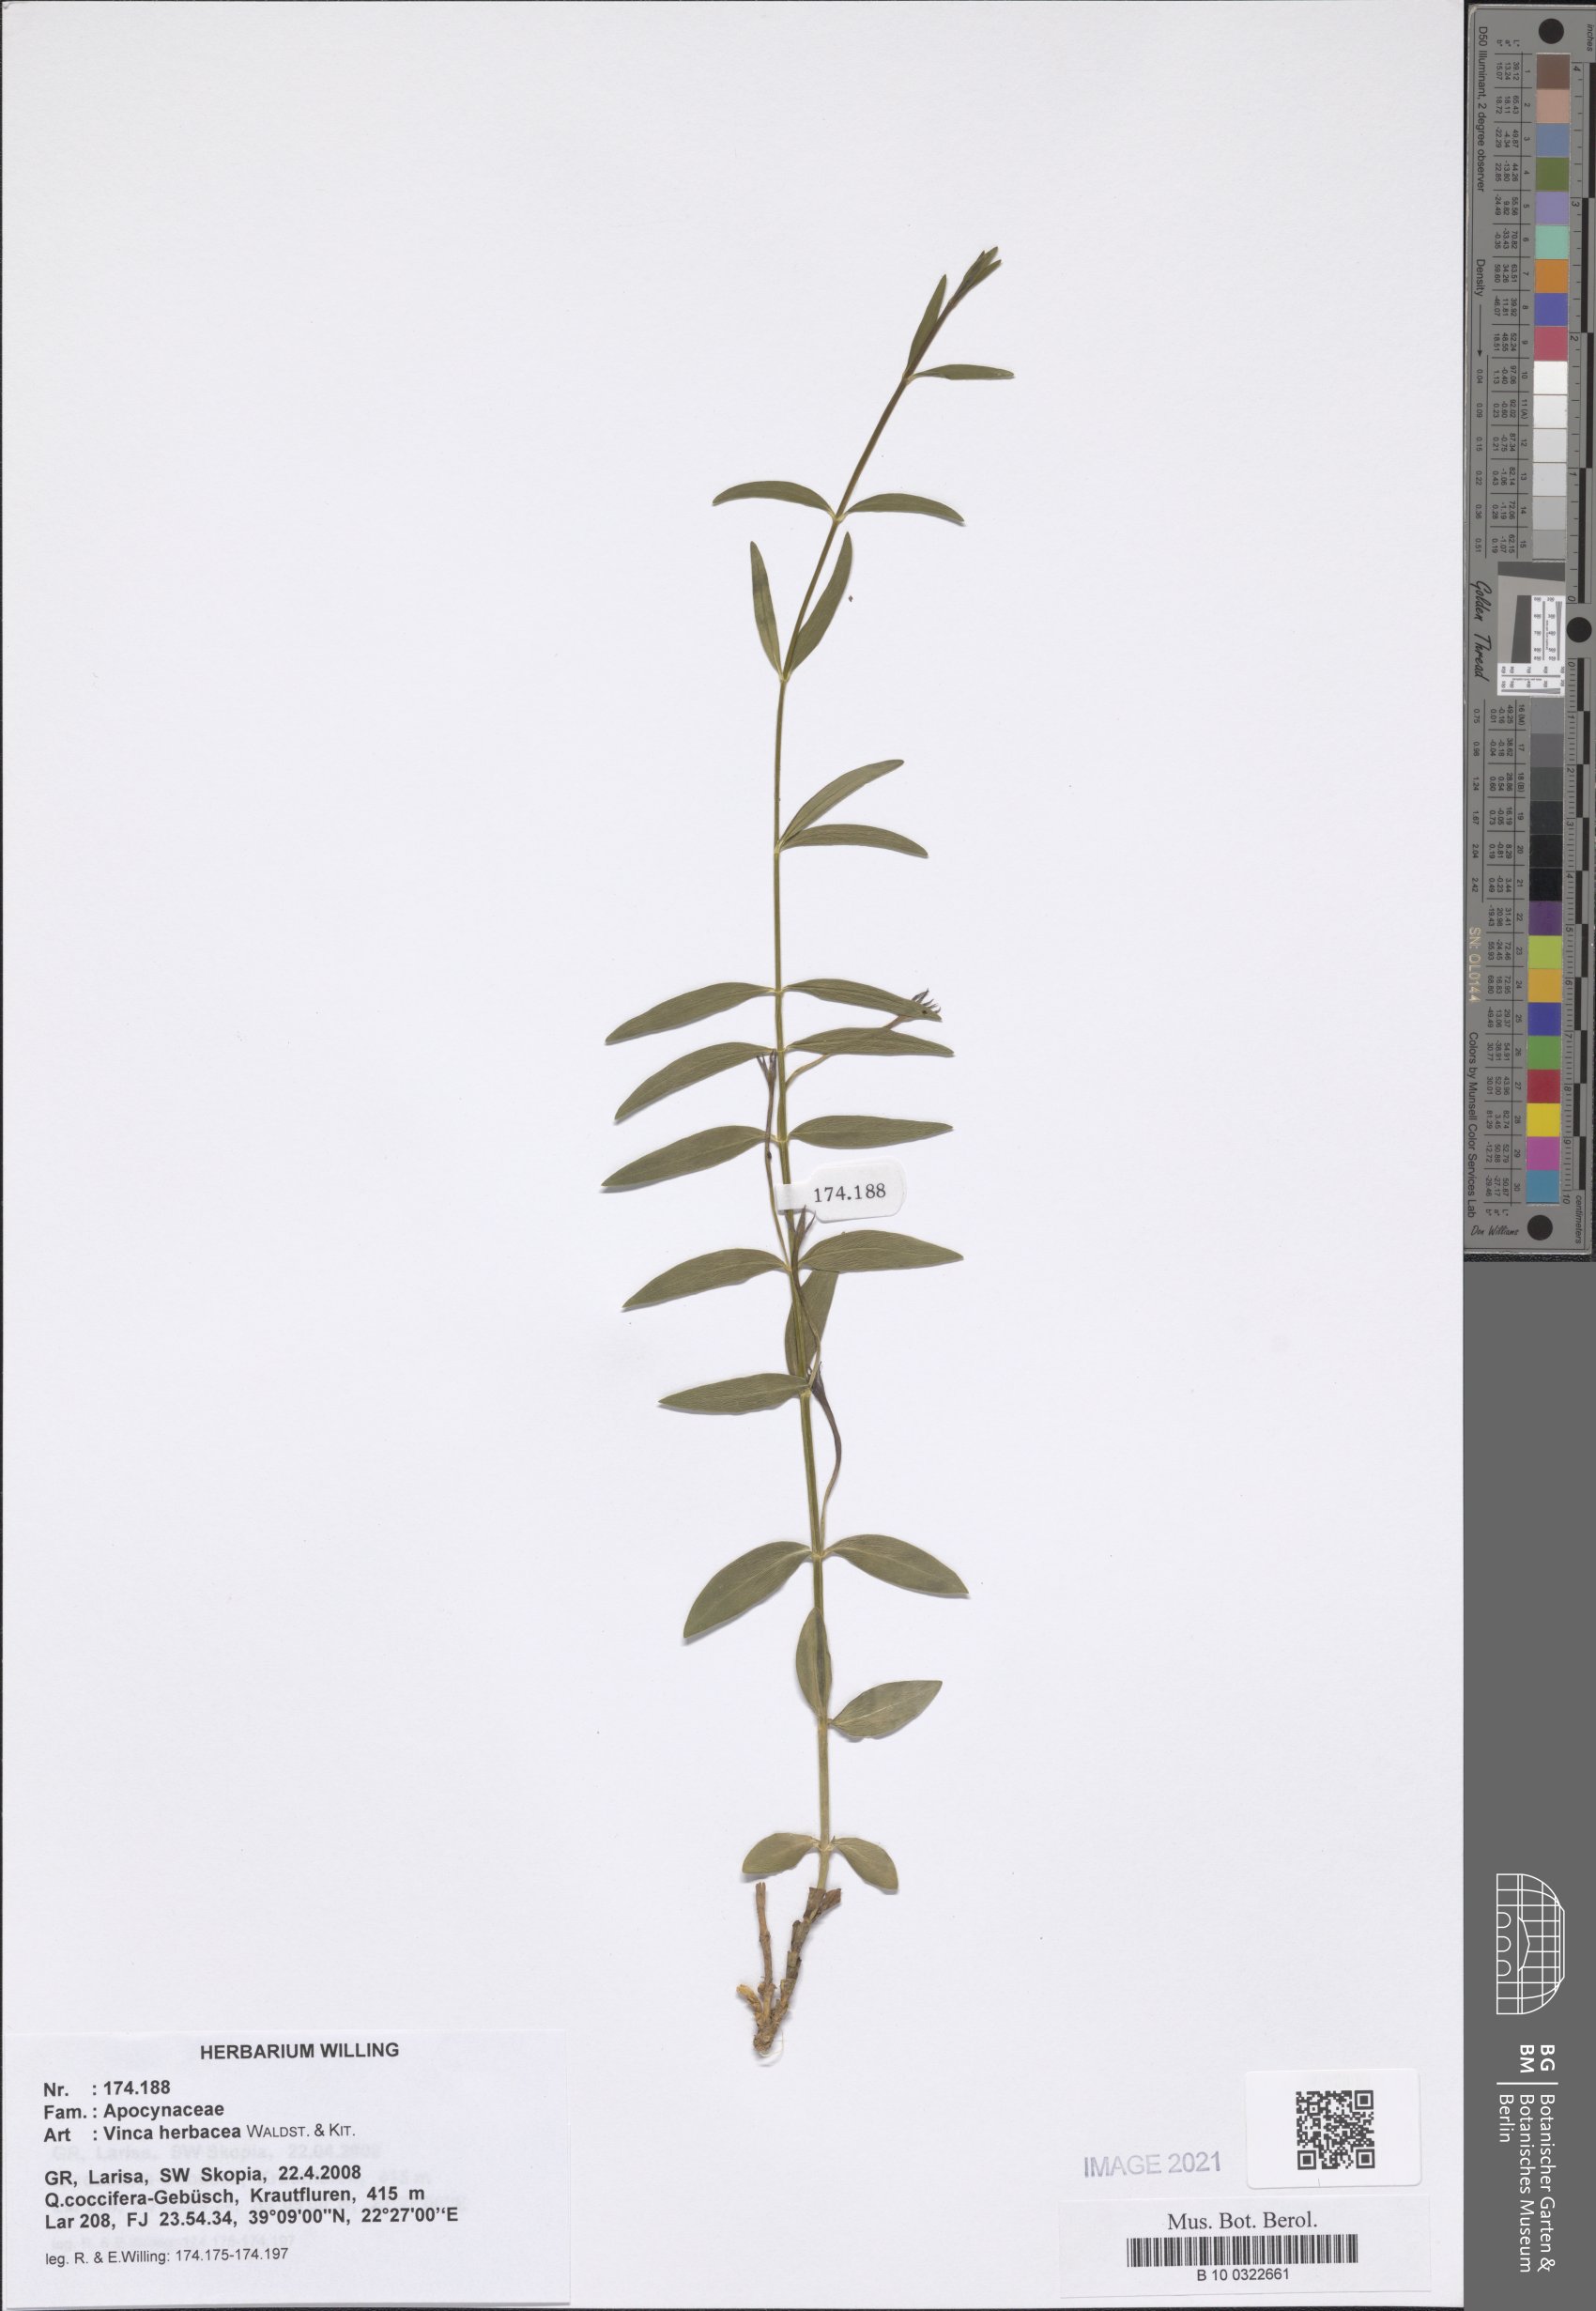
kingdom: Plantae
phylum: Tracheophyta
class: Magnoliopsida
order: Gentianales
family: Apocynaceae
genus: Vinca
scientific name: Vinca herbacea
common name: Herbaceous periwinkle
